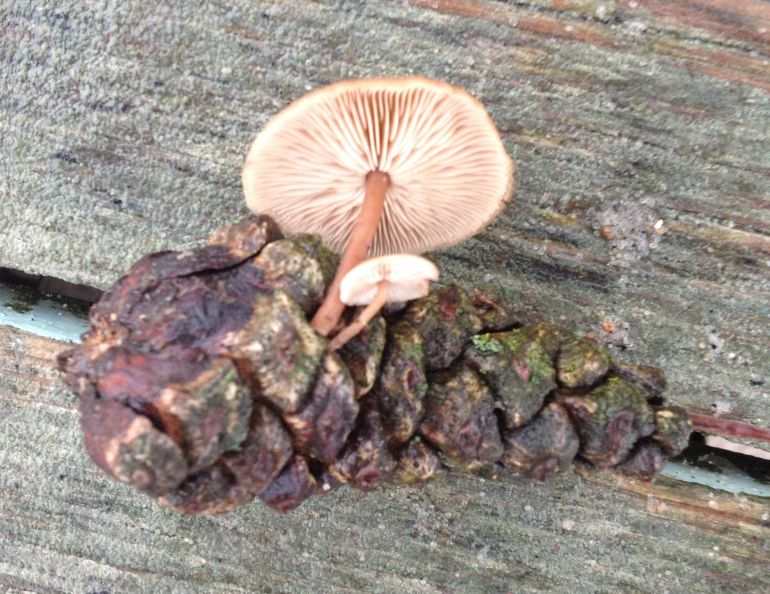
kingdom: Fungi
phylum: Basidiomycota
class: Agaricomycetes
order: Agaricales
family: Marasmiaceae
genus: Baeospora
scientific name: Baeospora myosura
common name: koglebruskhat
